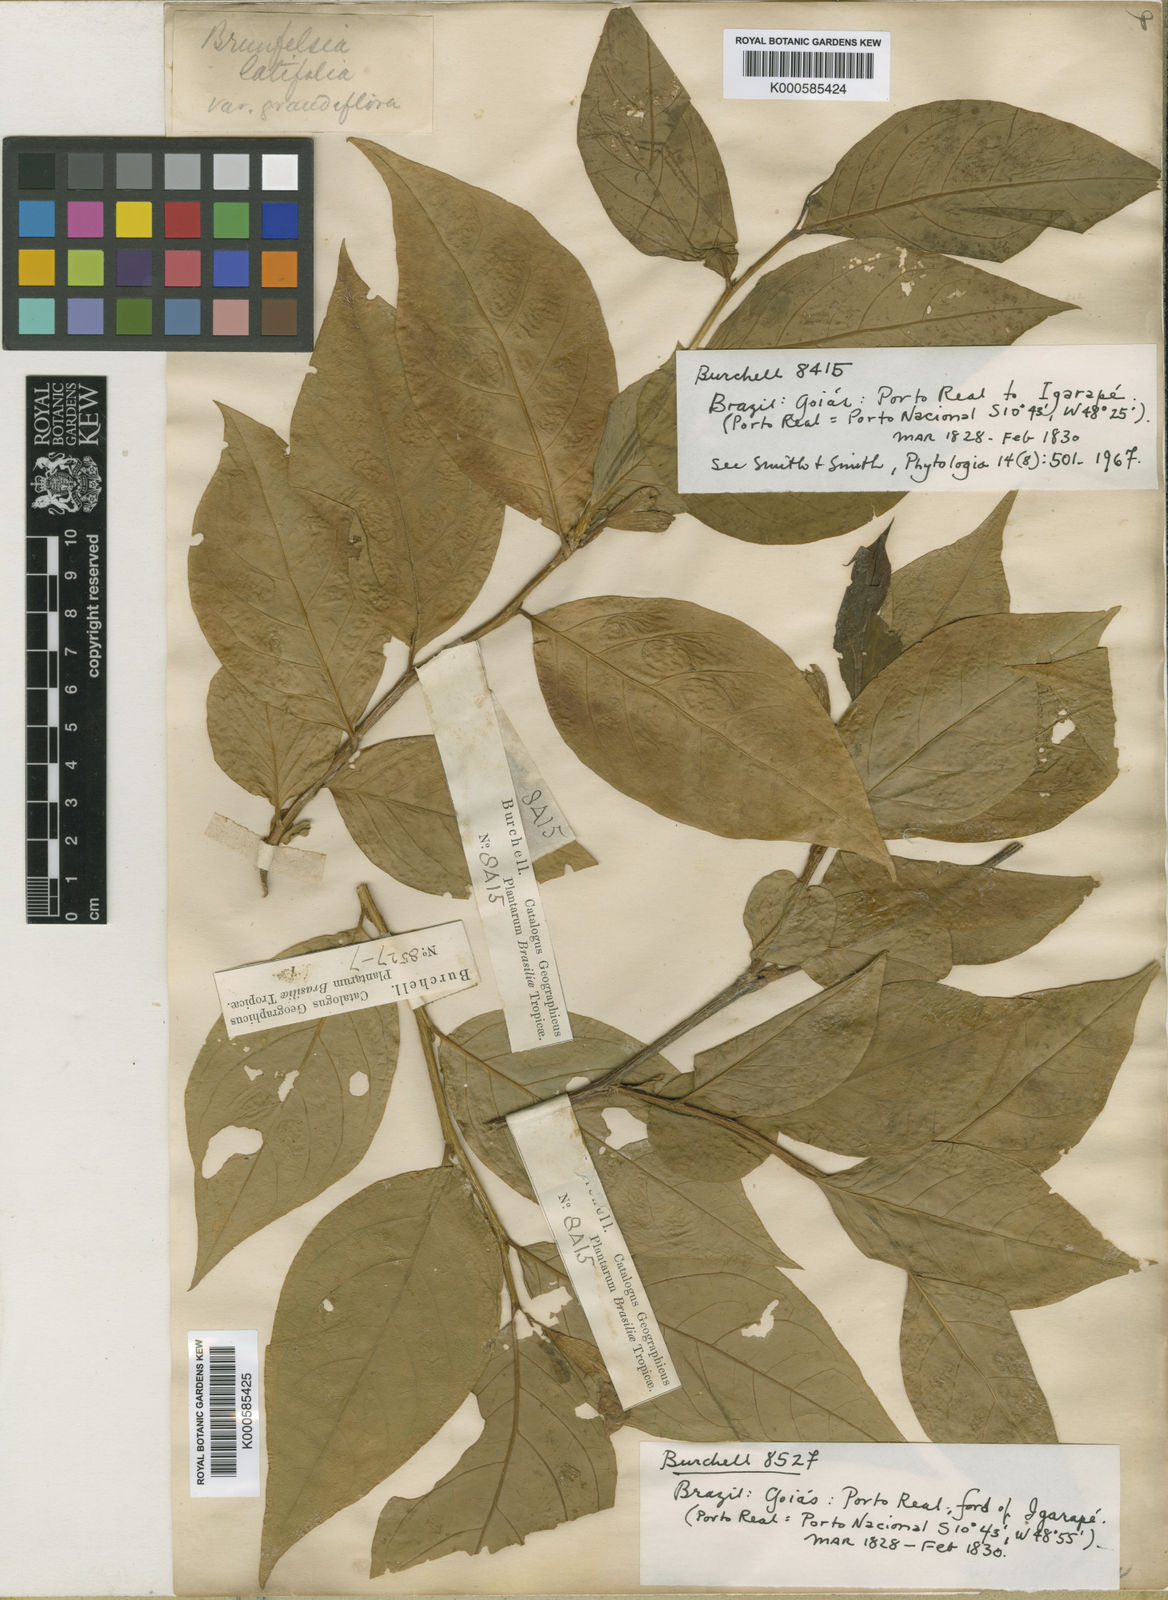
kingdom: Plantae
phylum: Tracheophyta
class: Magnoliopsida
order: Solanales
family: Solanaceae
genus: Brunfelsia
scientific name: Brunfelsia burchellii
